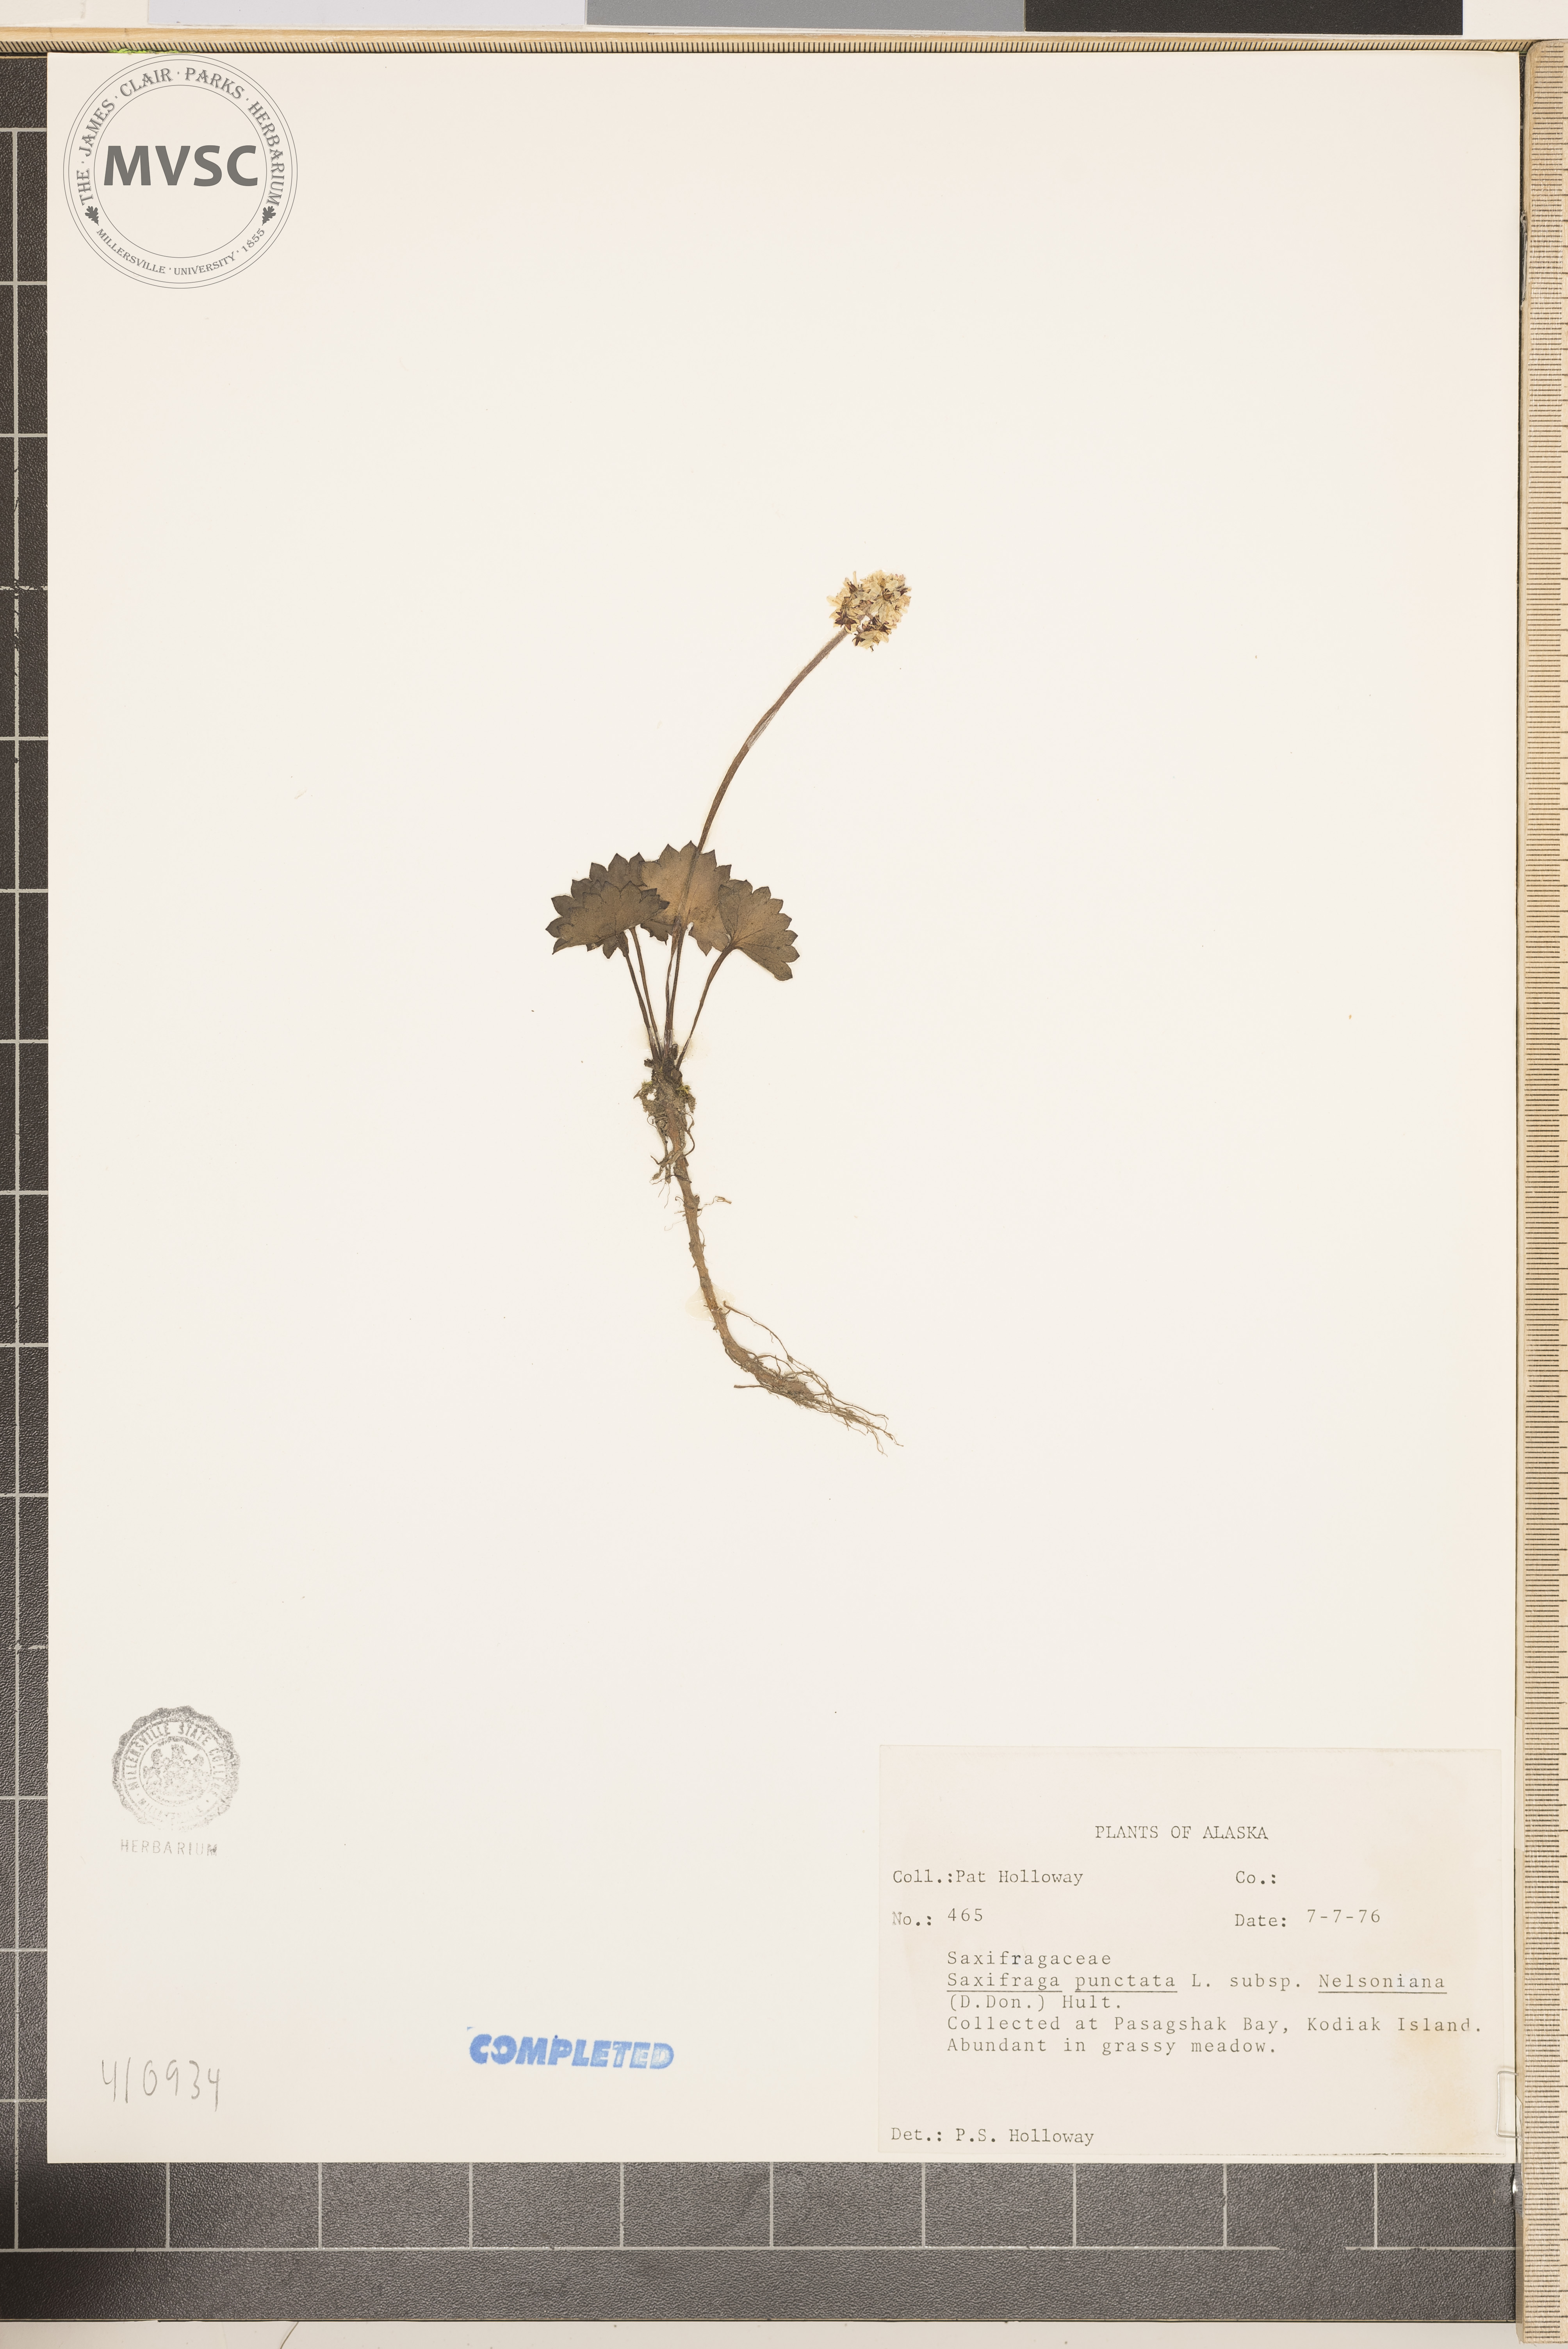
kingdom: Plantae
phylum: Tracheophyta
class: Magnoliopsida
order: Saxifragales
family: Saxifragaceae
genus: Saxifraga
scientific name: Saxifraga punctata
